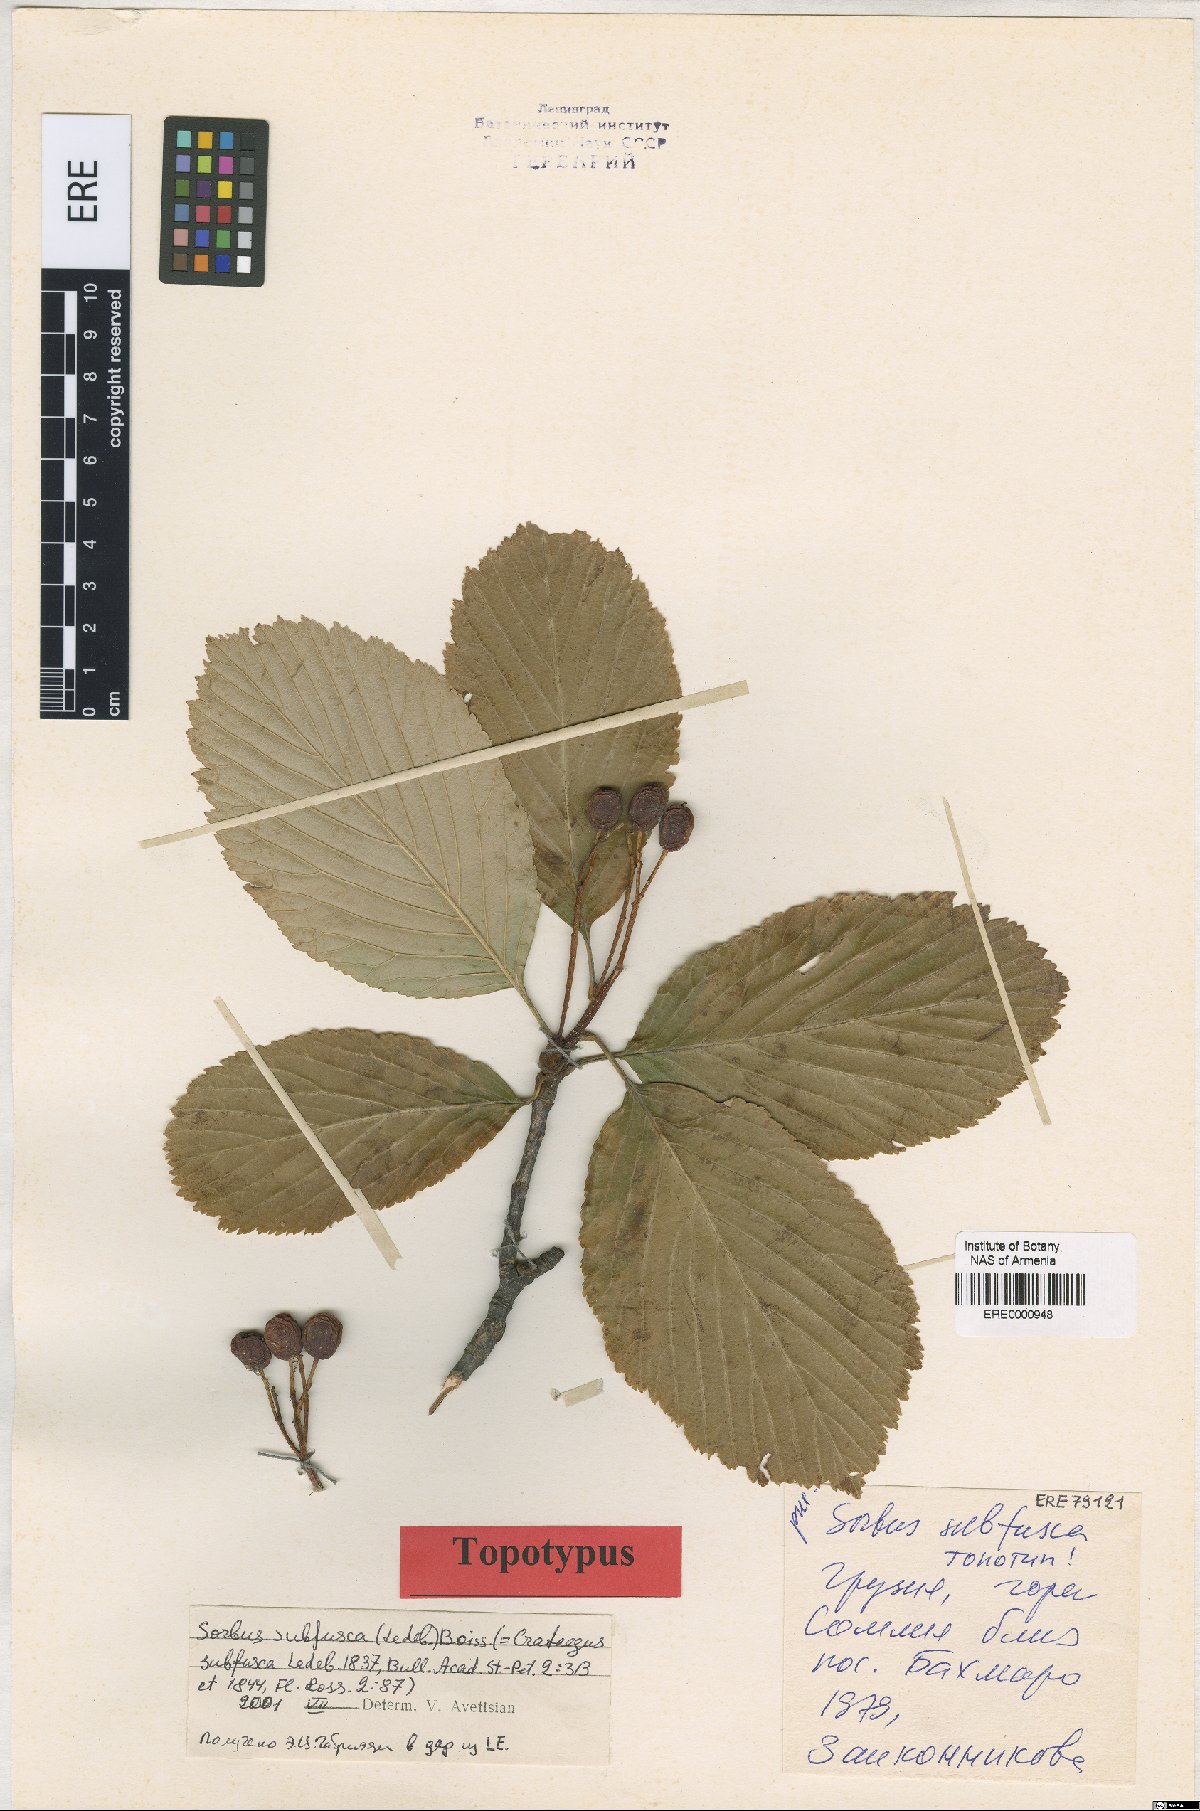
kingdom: Plantae
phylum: Tracheophyta
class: Magnoliopsida
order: Rosales
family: Rosaceae
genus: Sorbus
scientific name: Sorbus subfusca
